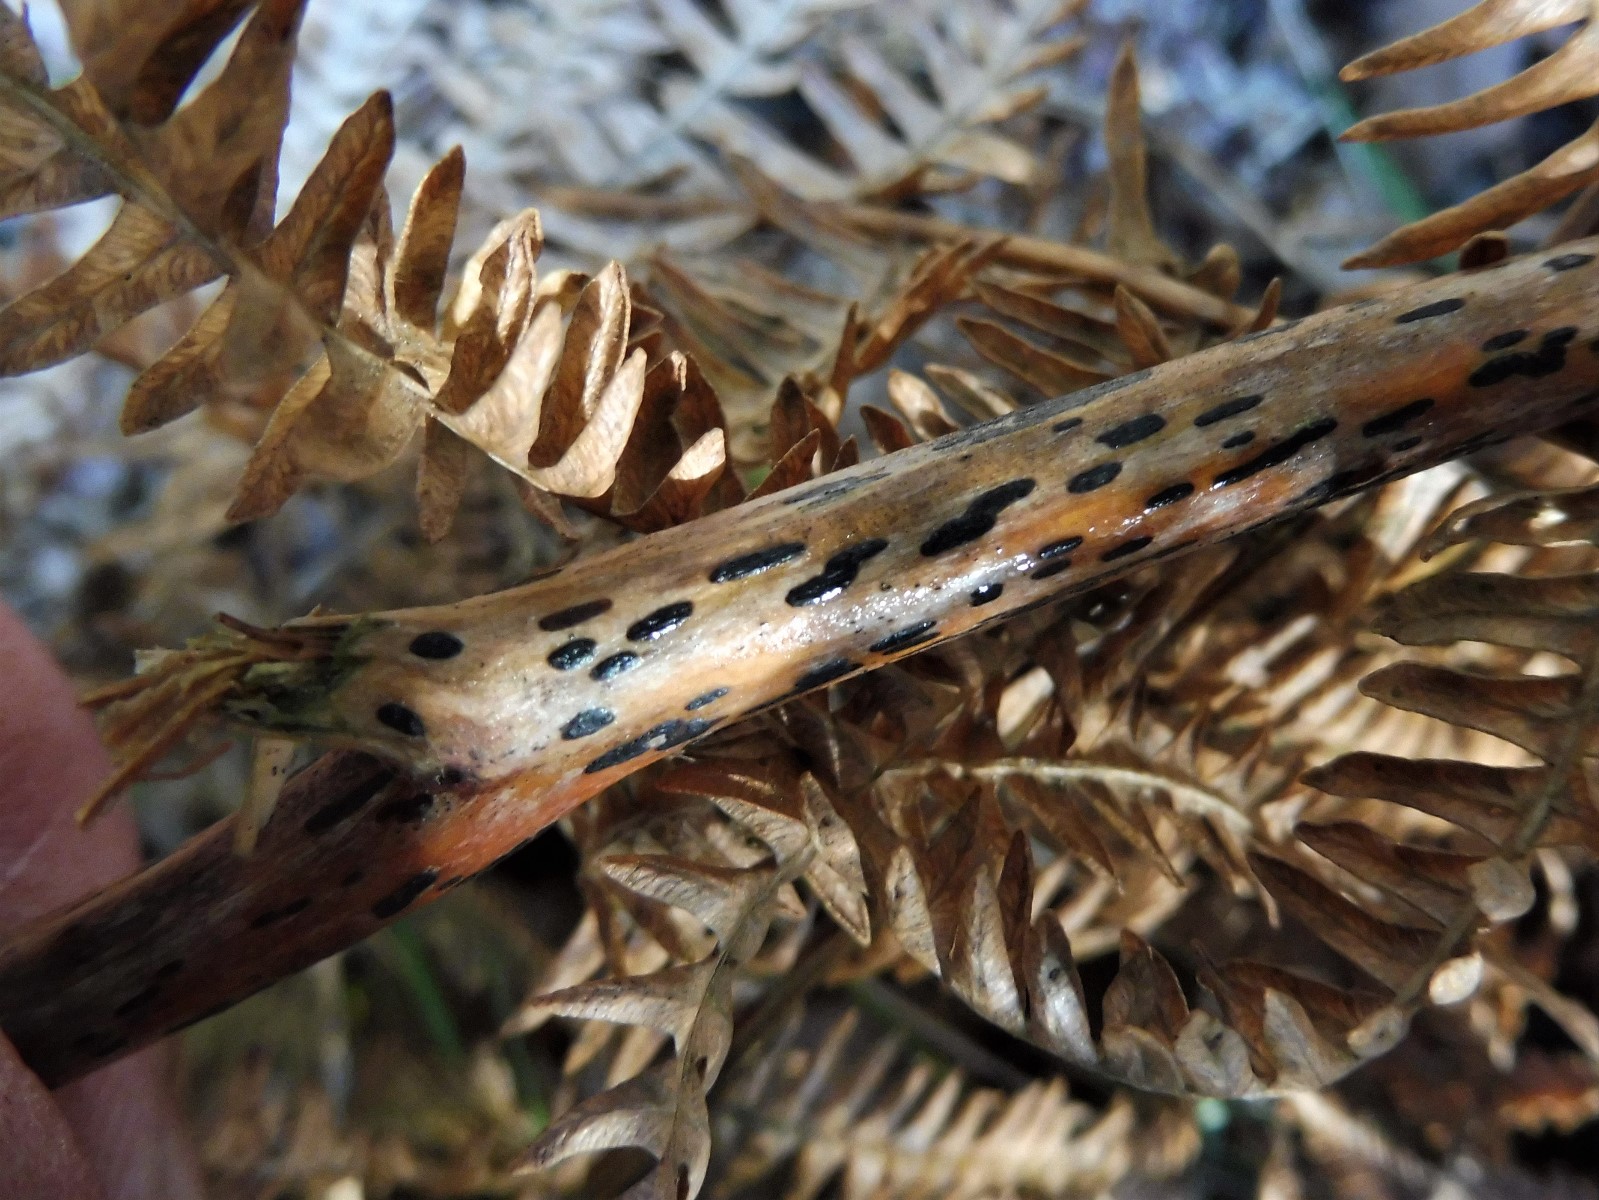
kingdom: Fungi
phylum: Ascomycota
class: Dothideomycetes
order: Pleosporales
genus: Rhopographus
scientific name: Rhopographus filicinus
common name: Bracken map
